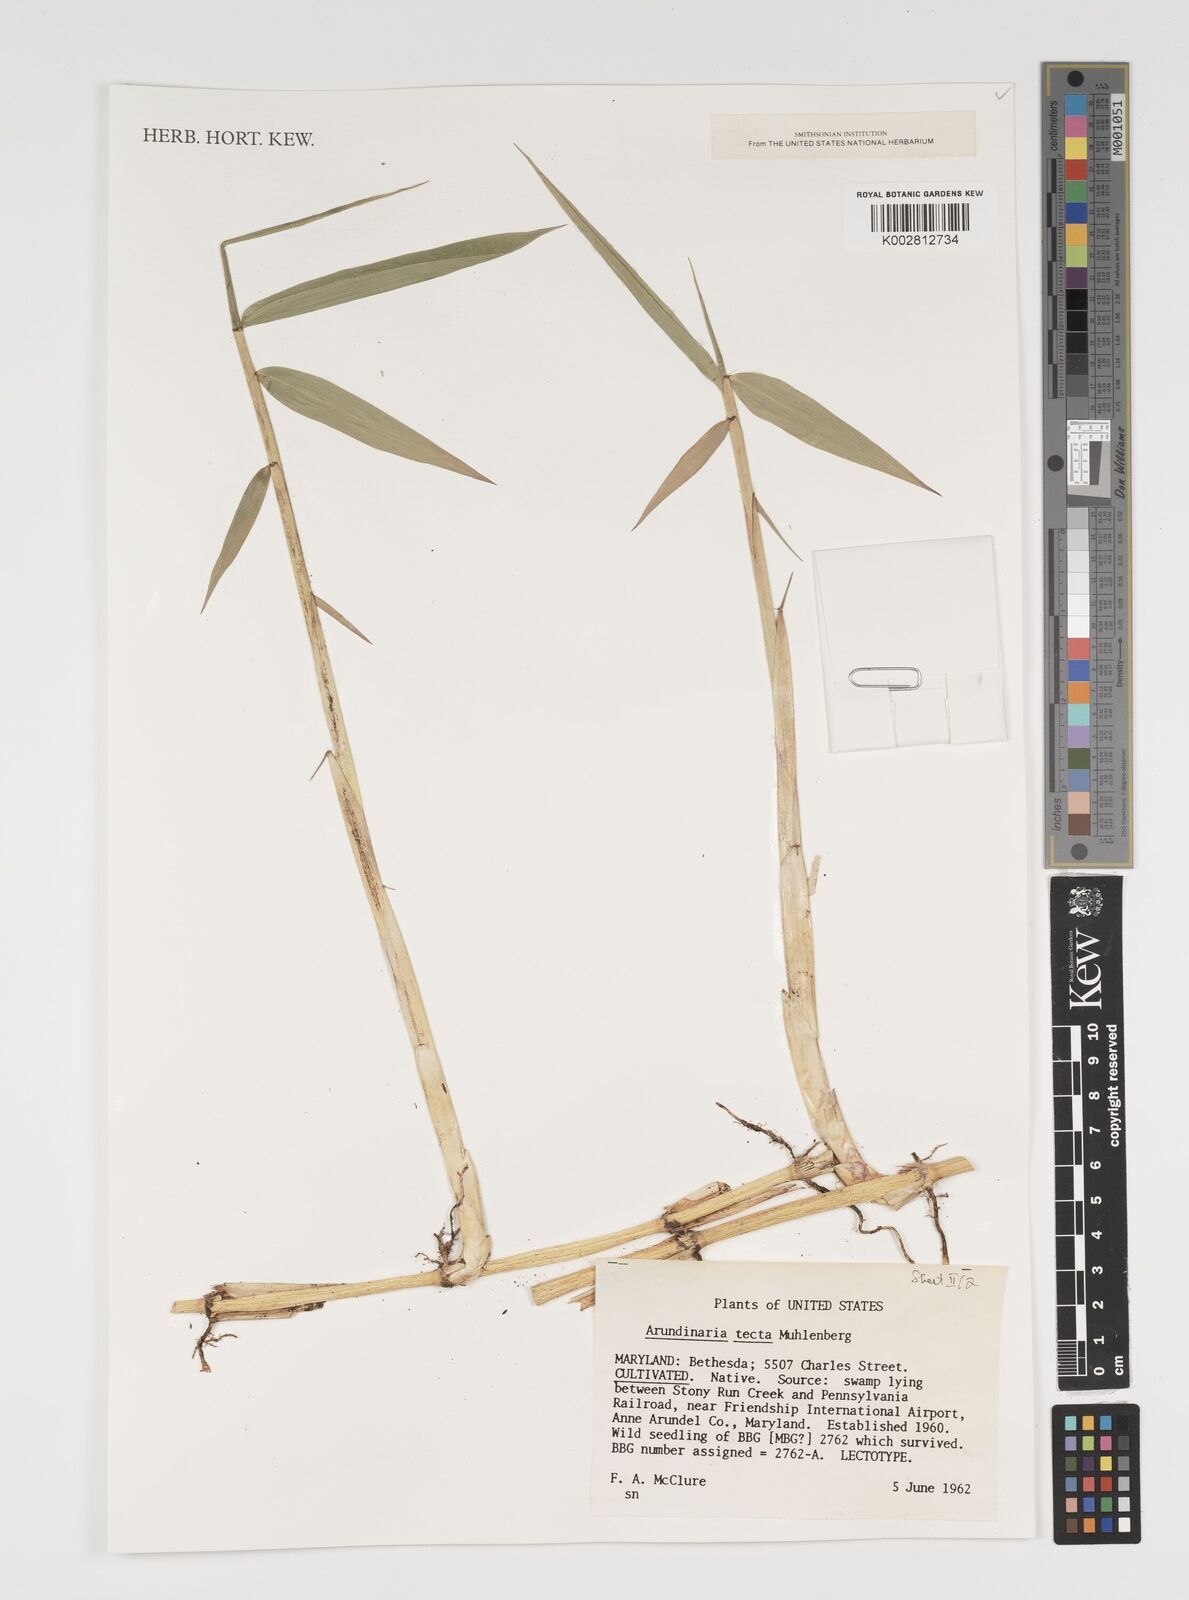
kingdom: Plantae
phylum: Tracheophyta
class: Liliopsida
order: Poales
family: Poaceae
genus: Arundinaria
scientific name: Arundinaria tecta
